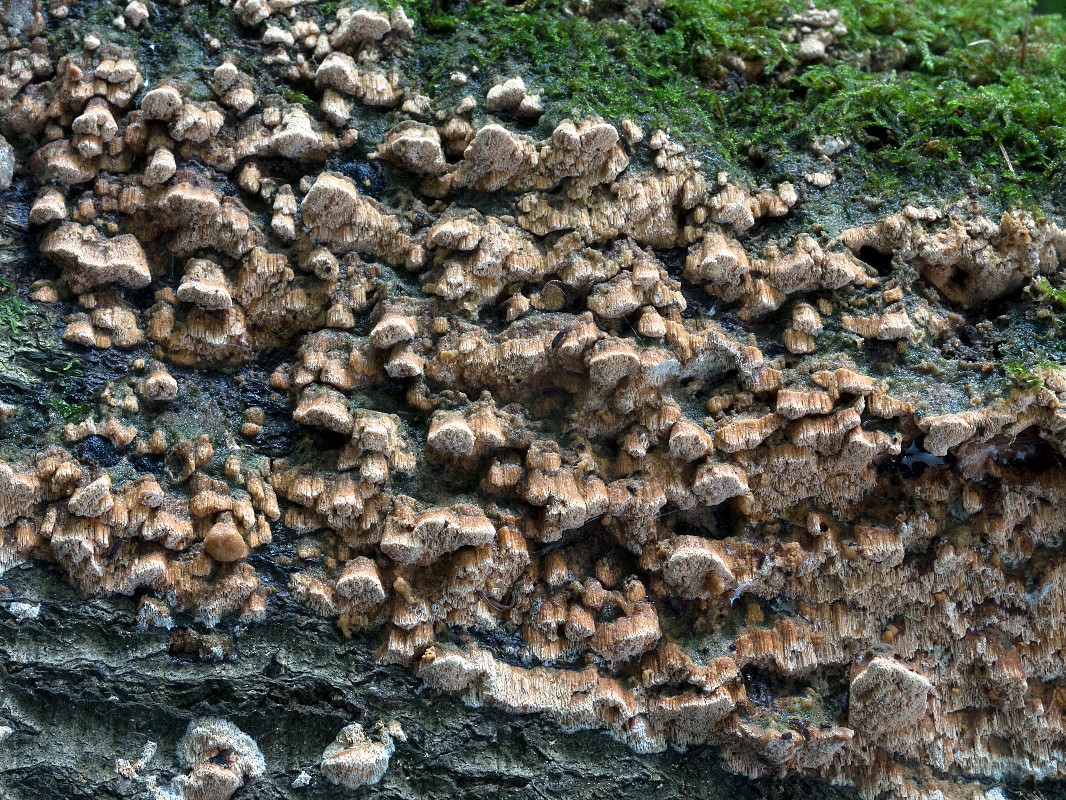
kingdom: Fungi
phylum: Basidiomycota
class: Agaricomycetes
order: Hymenochaetales
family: Schizoporaceae
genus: Xylodon
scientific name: Xylodon flaviporus
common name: gulporet tandsvamp
